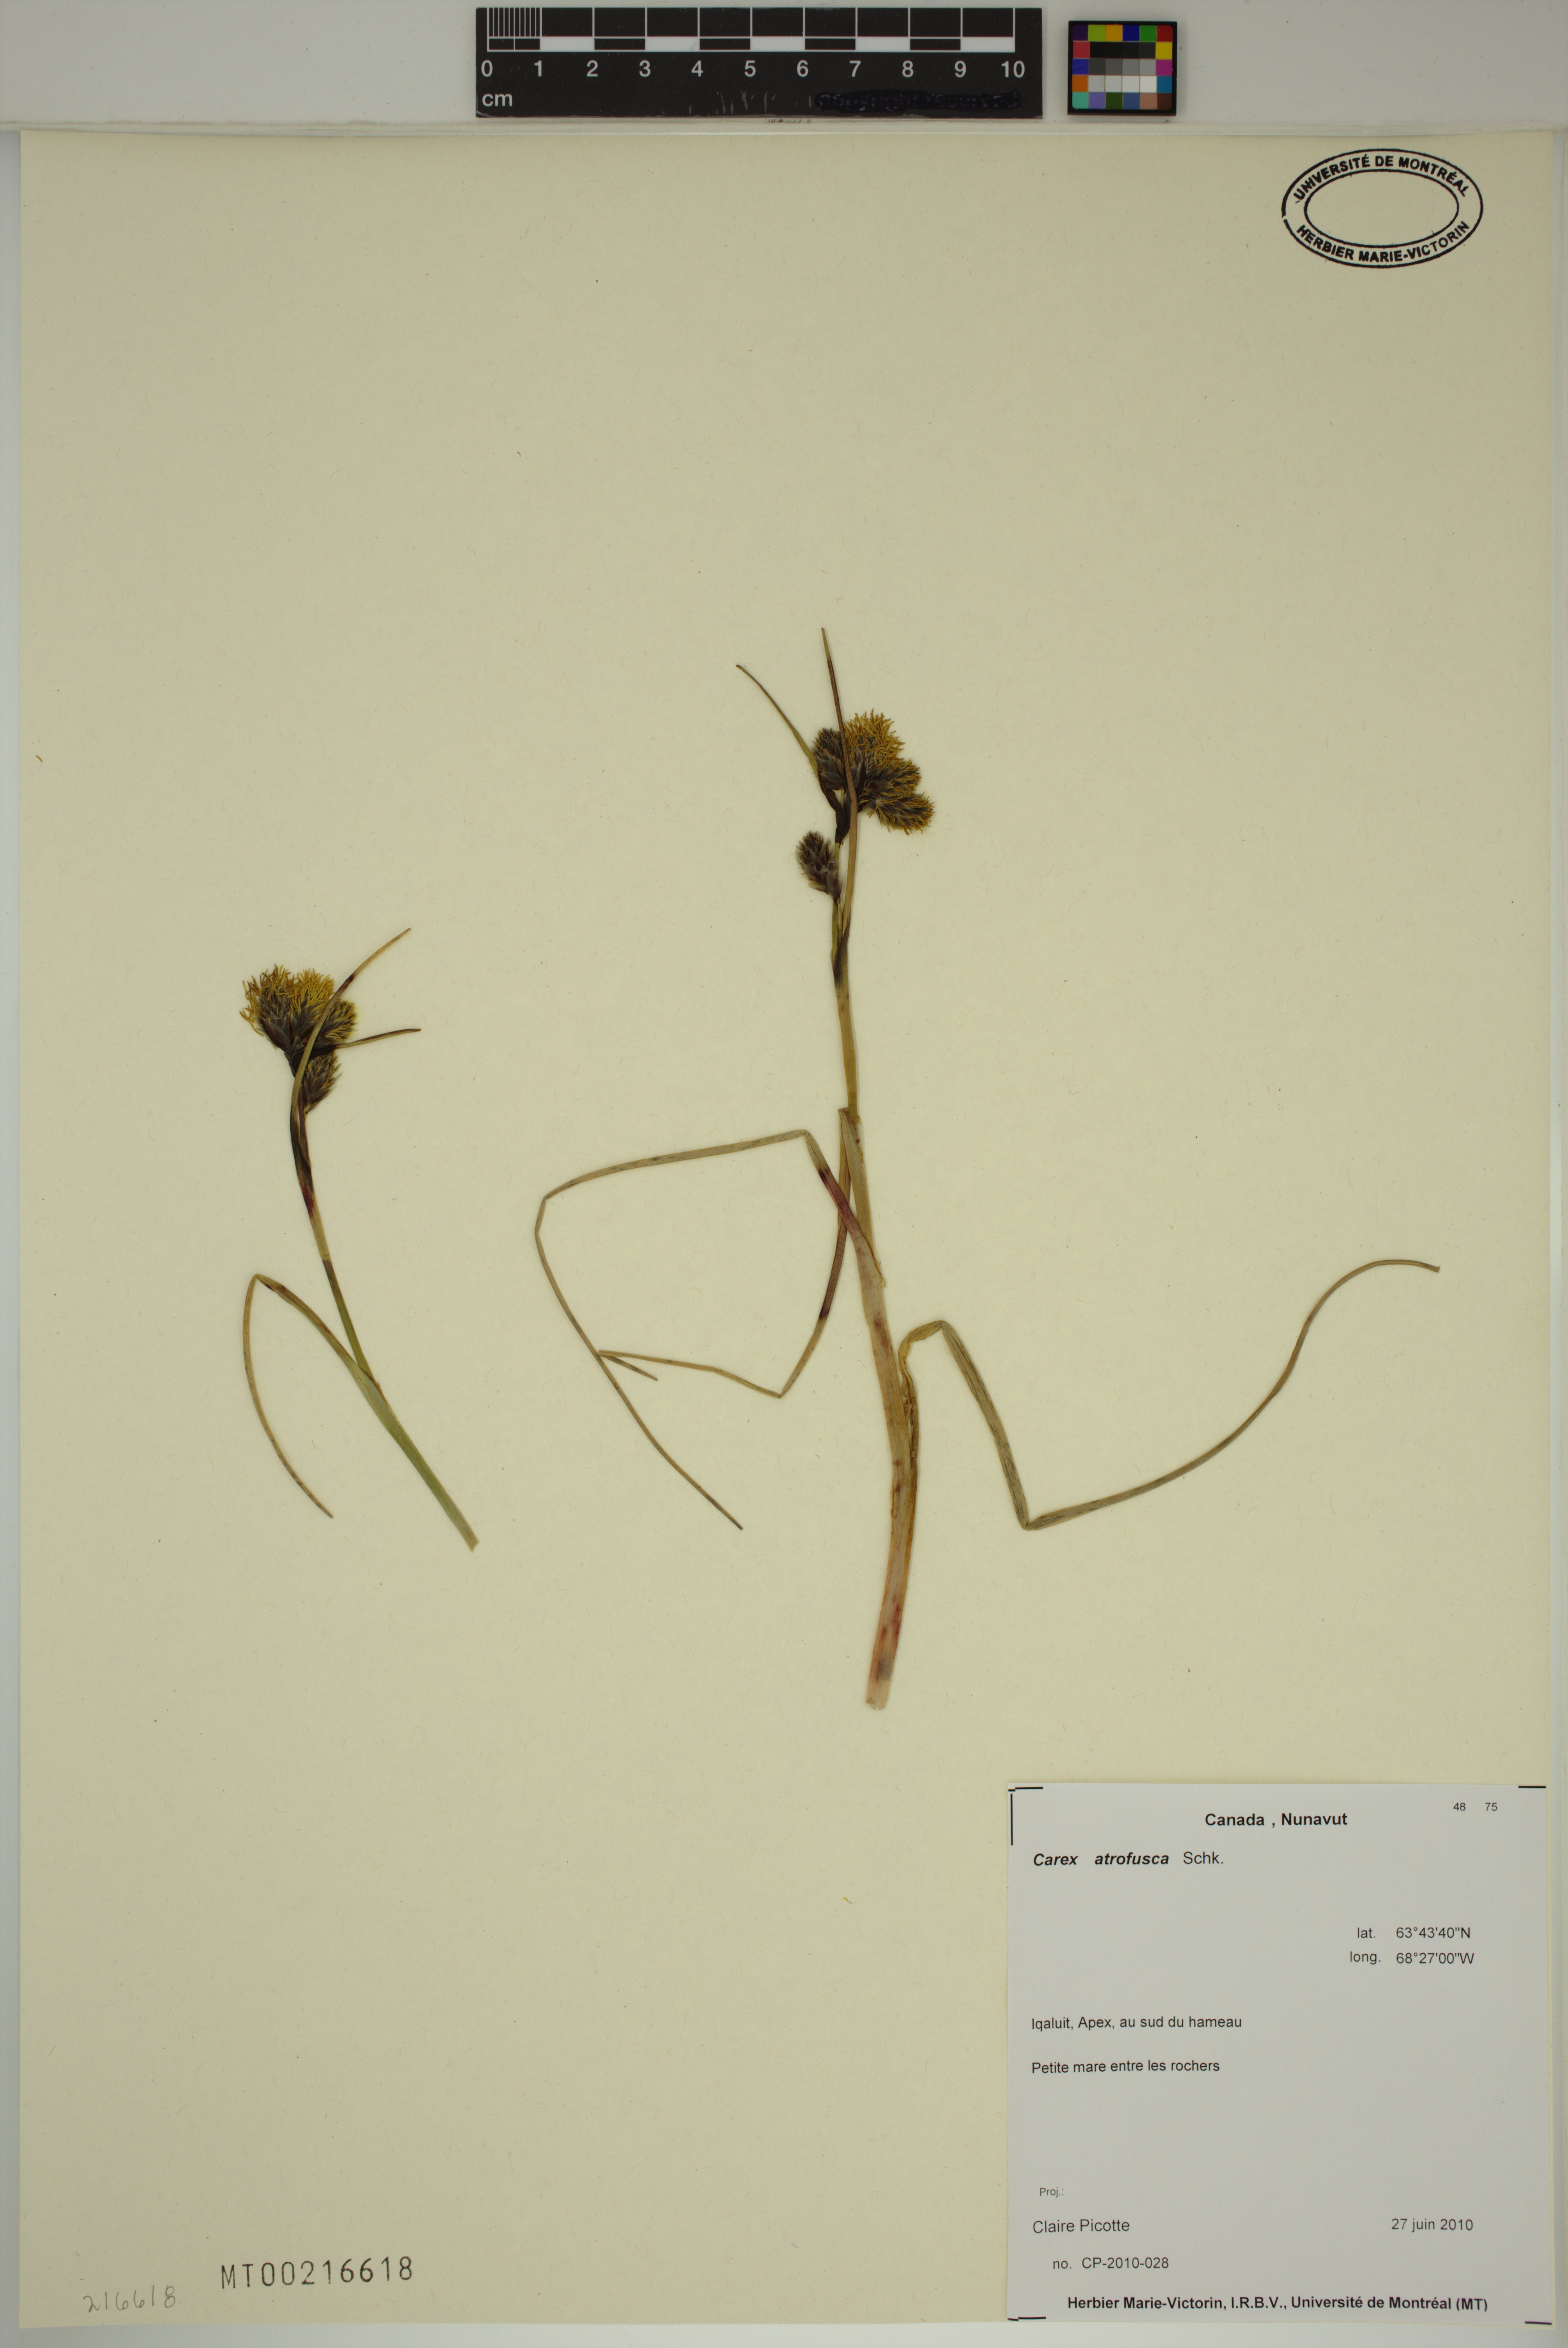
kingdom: Plantae
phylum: Tracheophyta
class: Liliopsida
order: Poales
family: Cyperaceae
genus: Carex
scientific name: Carex atrofusca
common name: Scorched alpine-sedge
